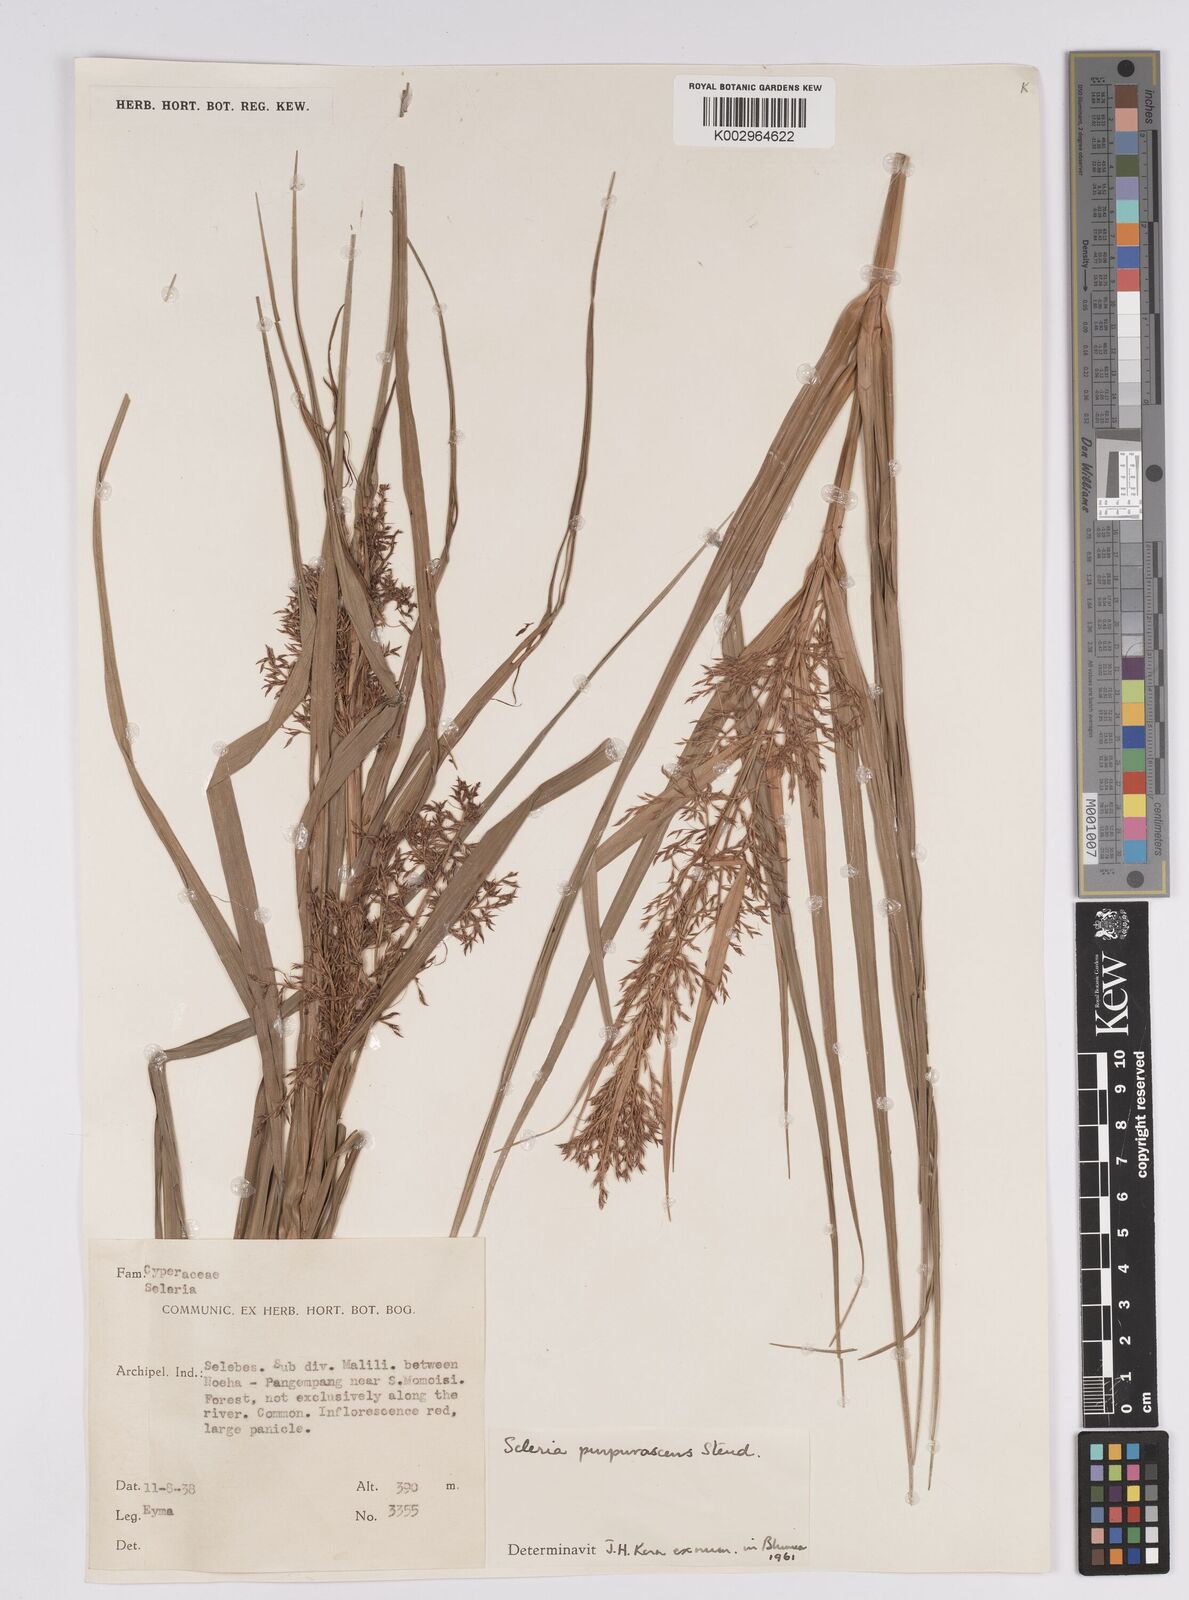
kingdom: Plantae
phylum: Tracheophyta
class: Liliopsida
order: Poales
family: Cyperaceae
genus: Scleria
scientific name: Scleria purpurascens
